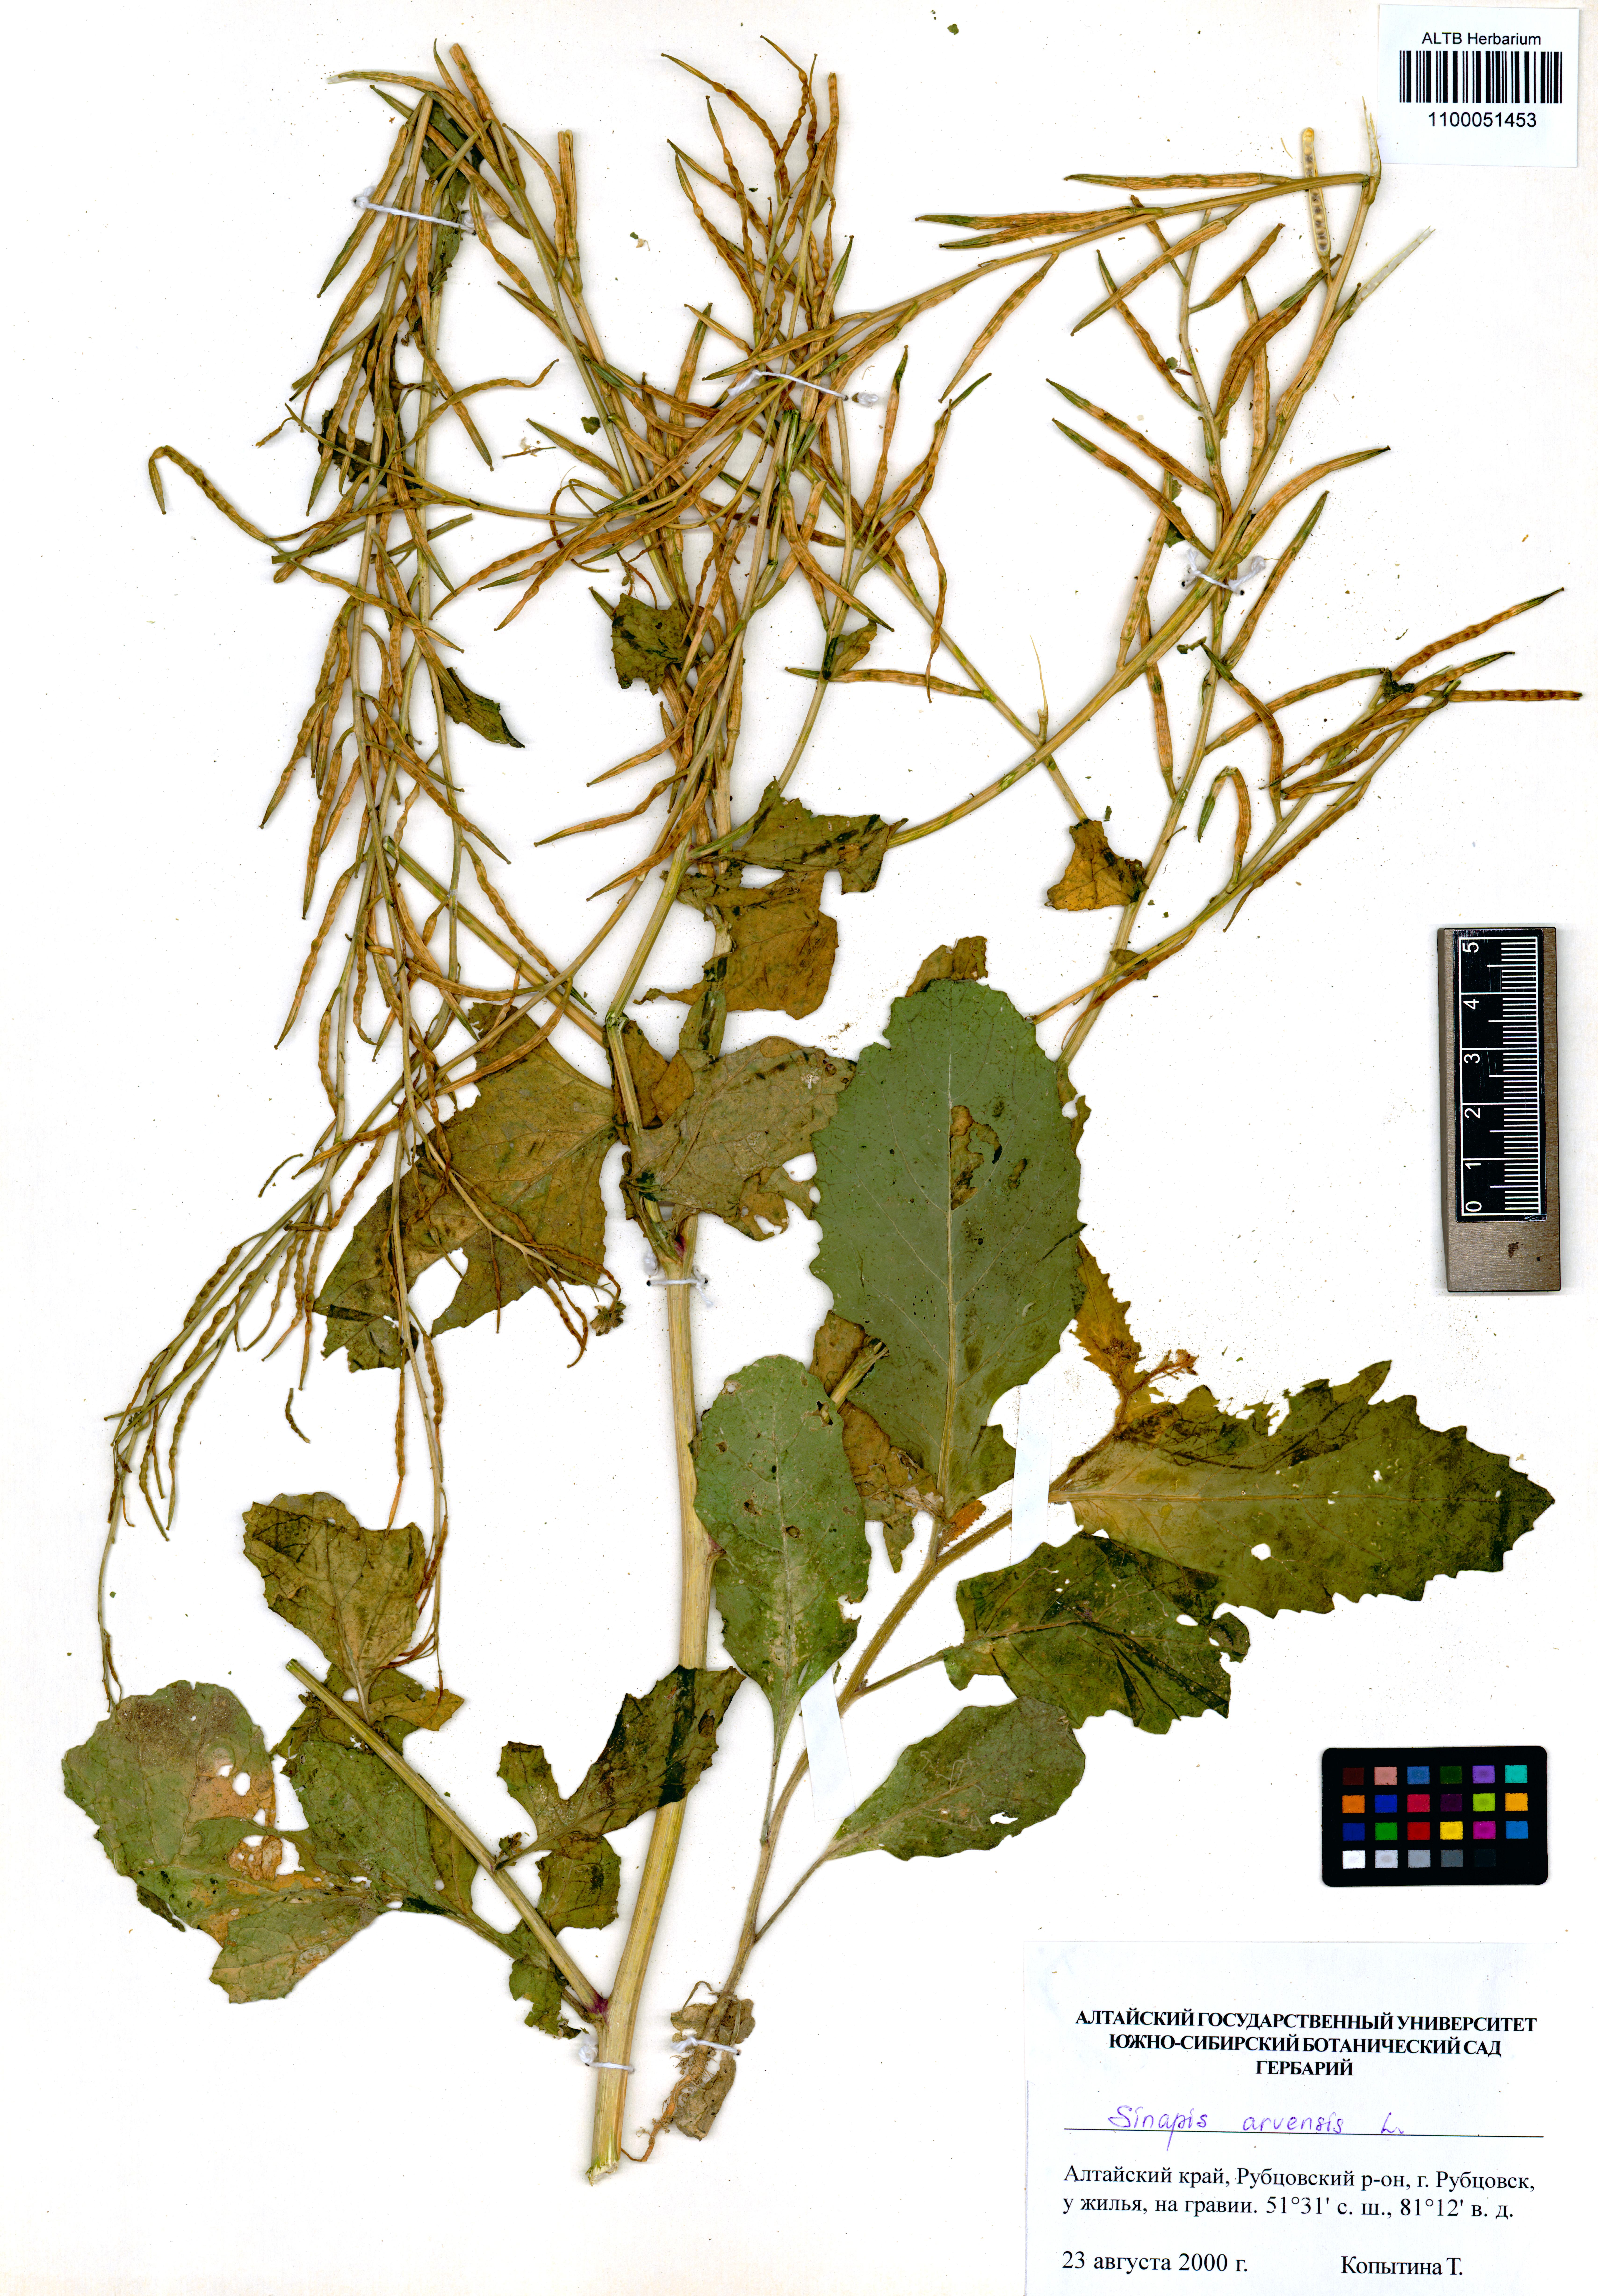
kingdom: Plantae
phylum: Tracheophyta
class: Magnoliopsida
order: Brassicales
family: Brassicaceae
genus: Sinapis
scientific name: Sinapis arvensis
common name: Charlock
